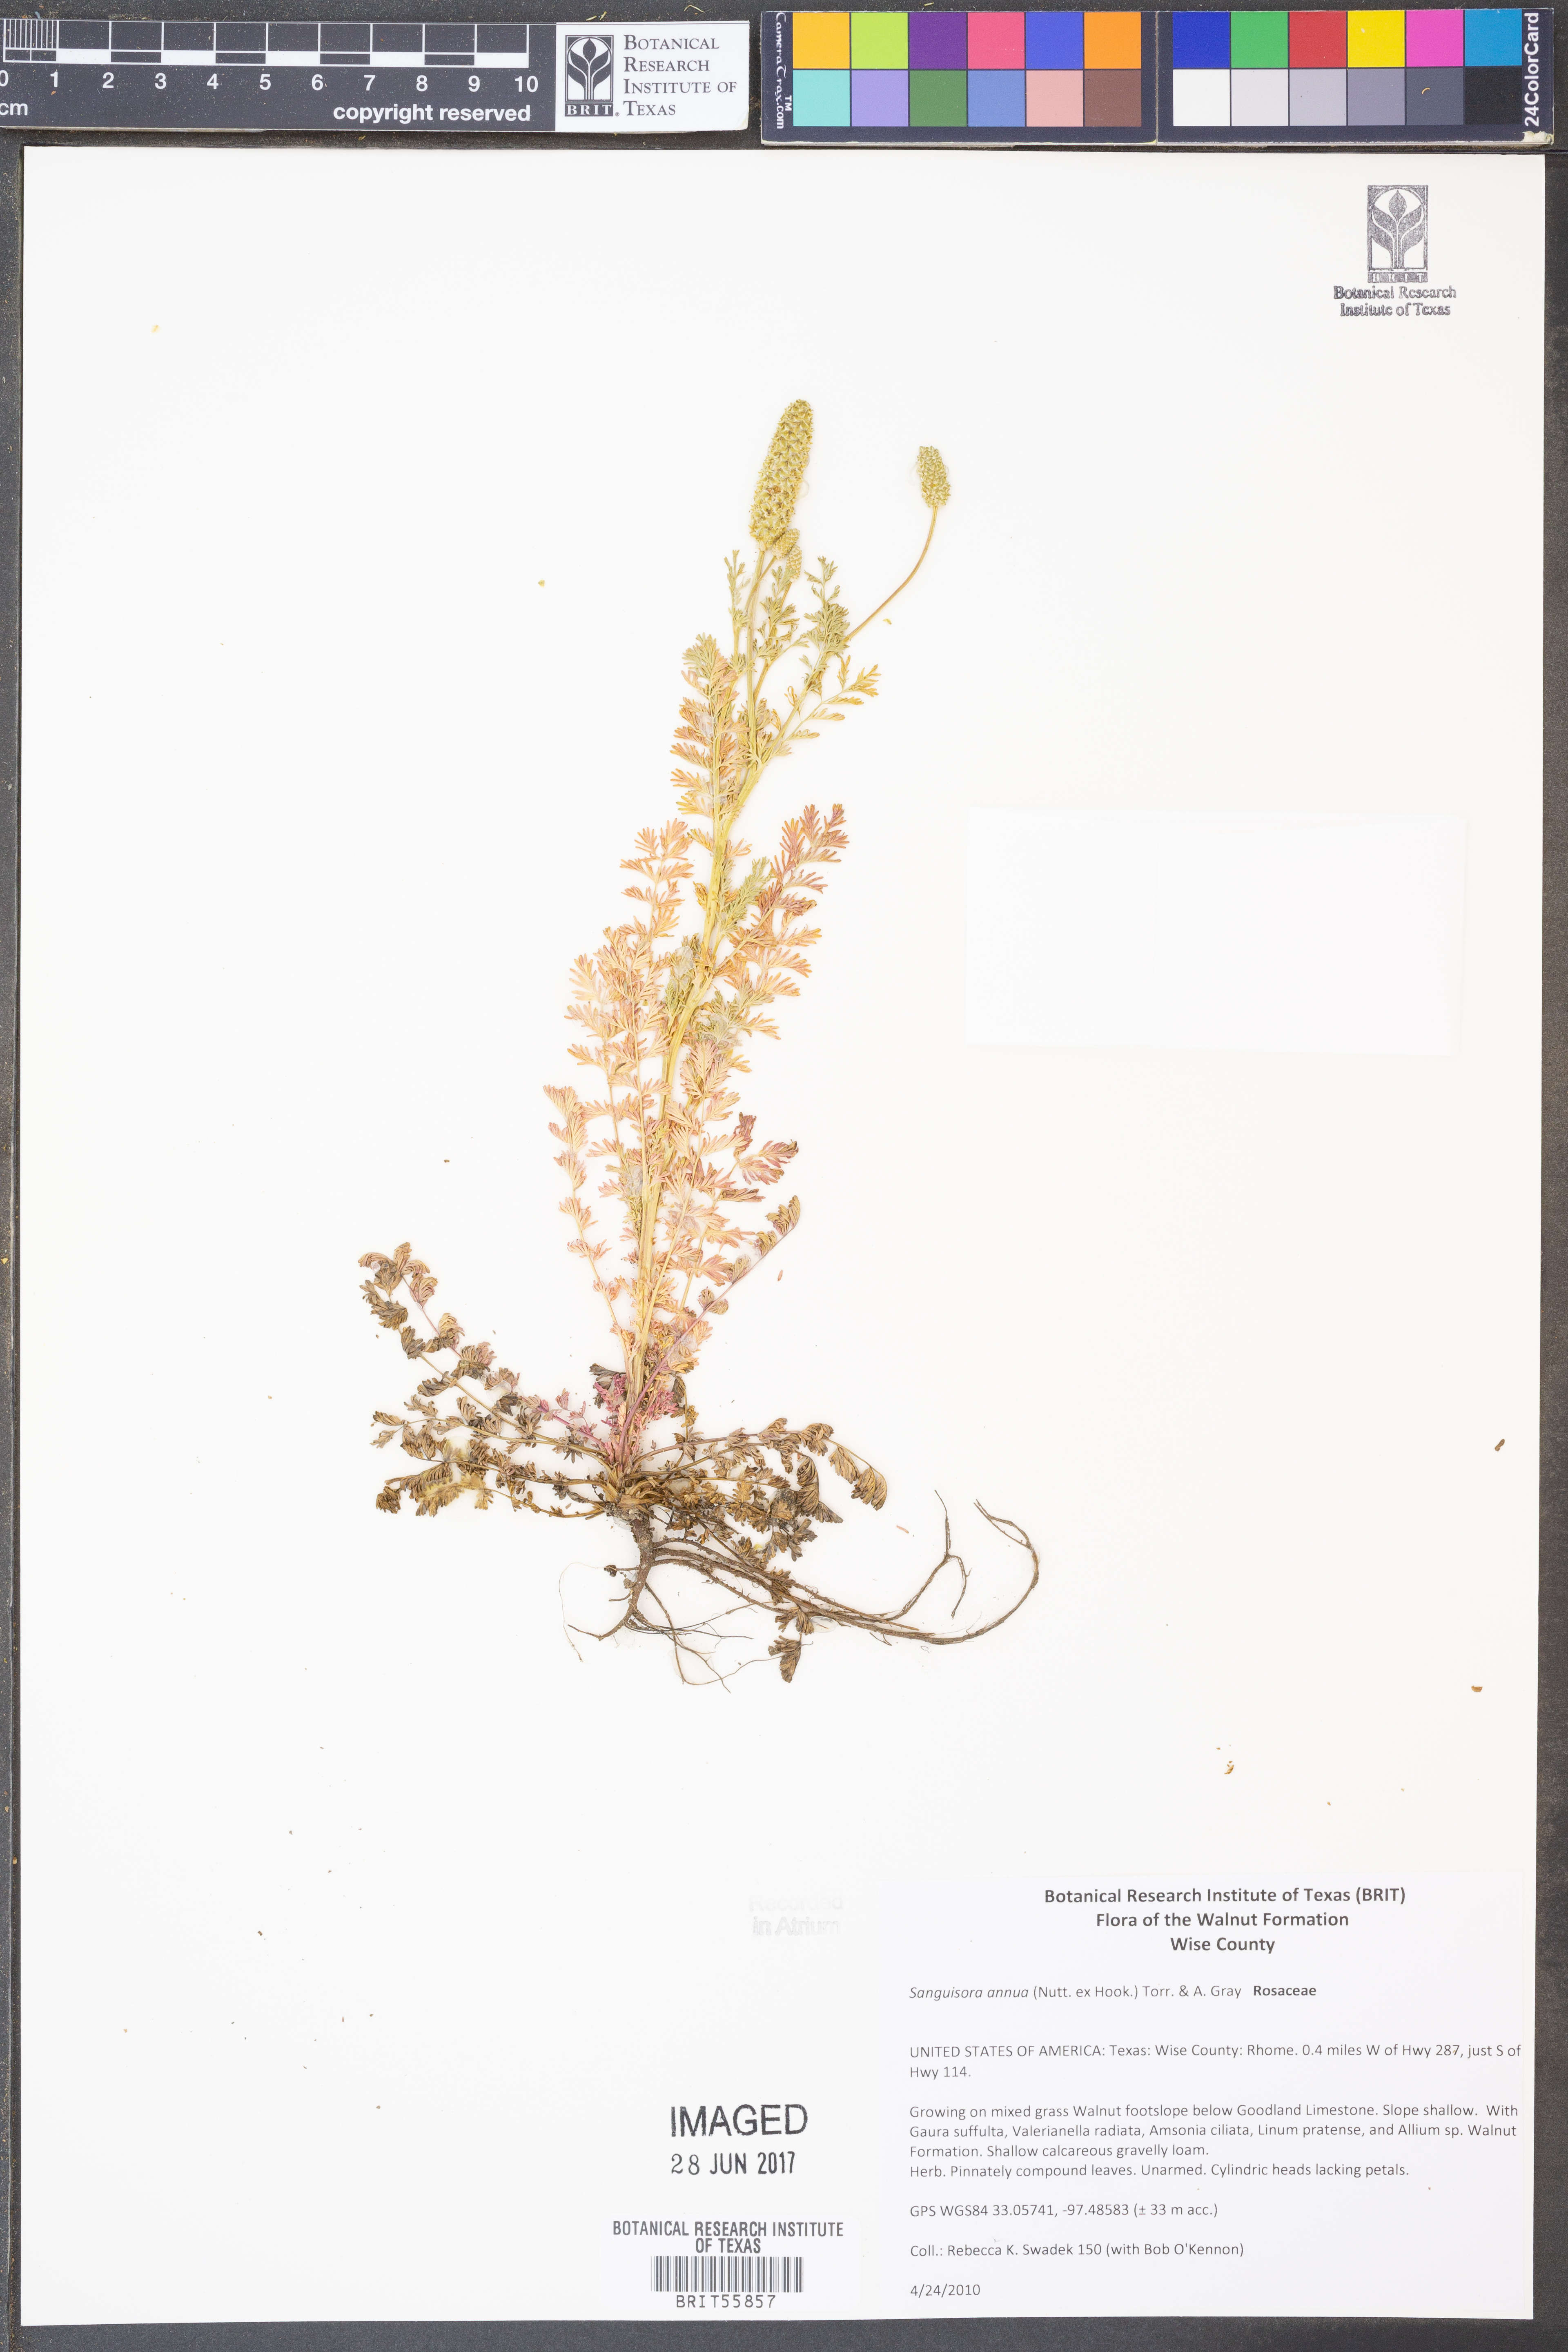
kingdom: Plantae
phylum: Tracheophyta
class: Magnoliopsida
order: Rosales
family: Rosaceae
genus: Poteridium
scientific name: Poteridium annuum
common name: Annual burnet
